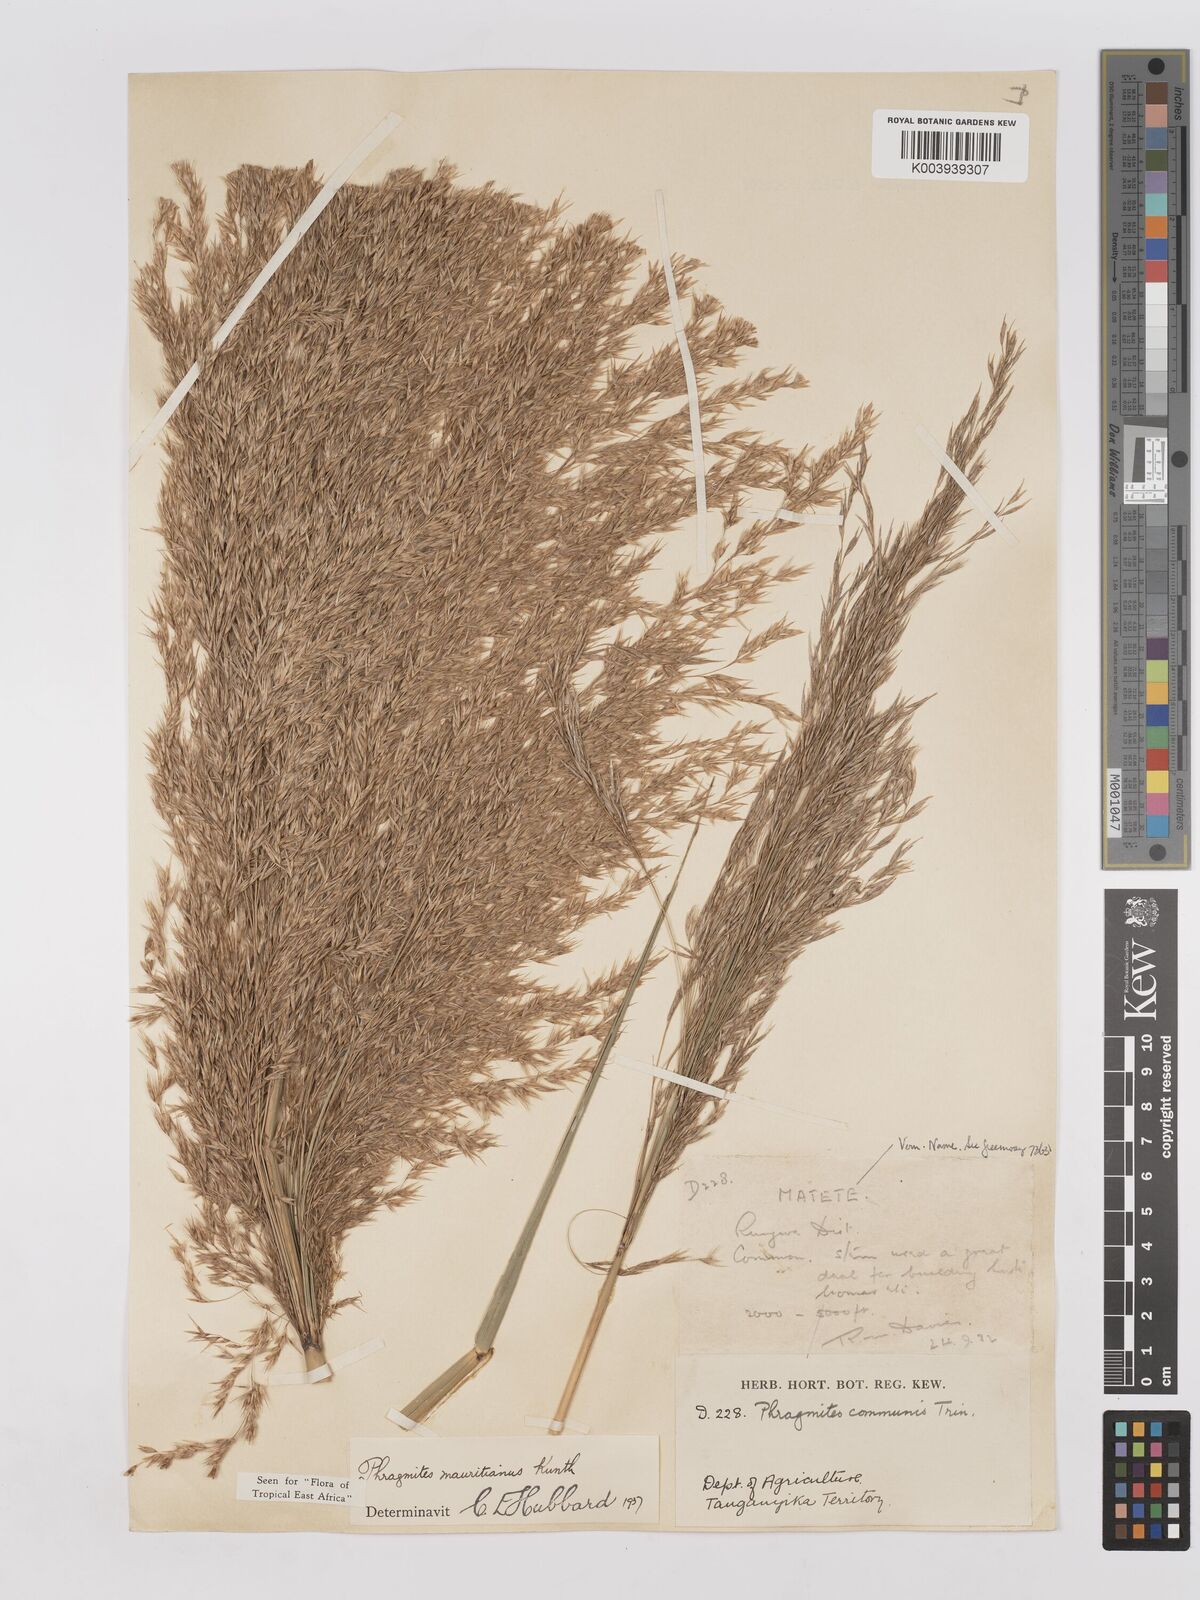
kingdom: Plantae
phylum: Tracheophyta
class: Liliopsida
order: Poales
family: Poaceae
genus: Phragmites
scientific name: Phragmites mauritianus
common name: Reed grass
